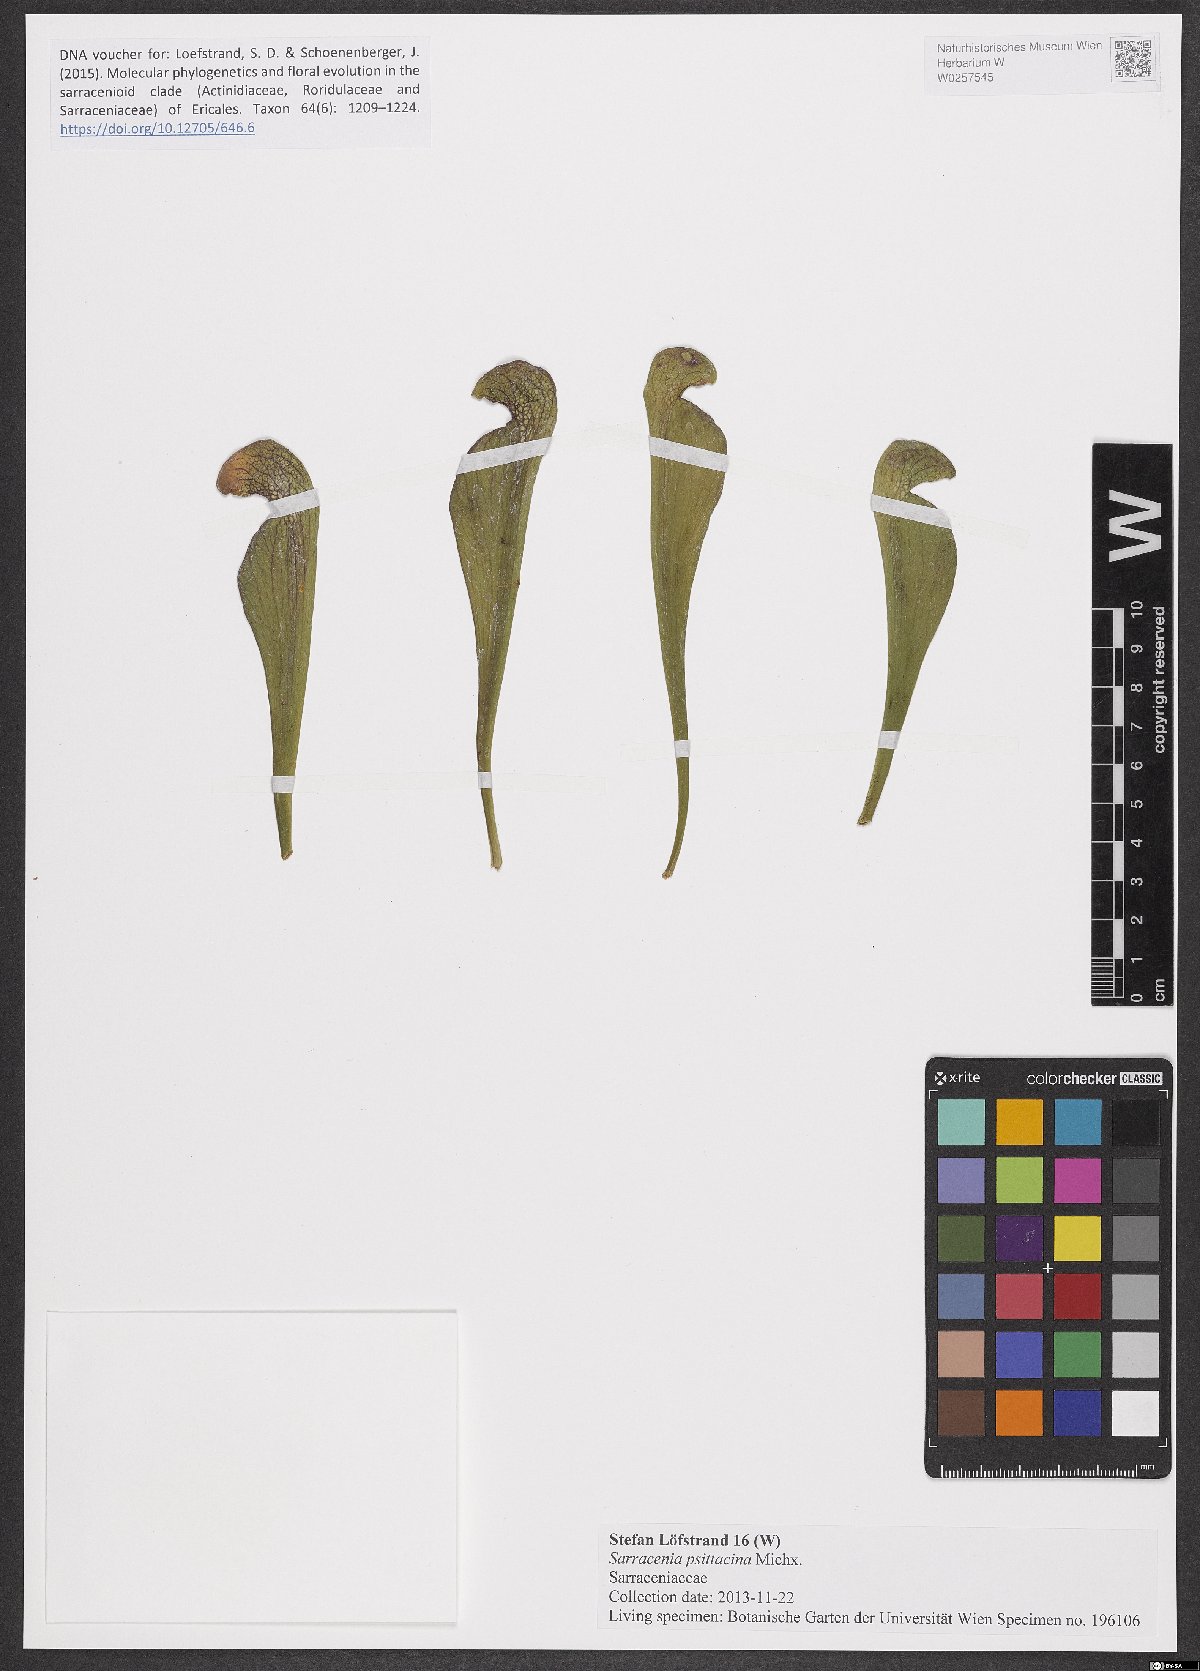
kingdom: Plantae
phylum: Tracheophyta
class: Magnoliopsida
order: Ericales
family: Sarraceniaceae
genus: Sarracenia
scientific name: Sarracenia psittacina
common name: Parrot pitcherplant
